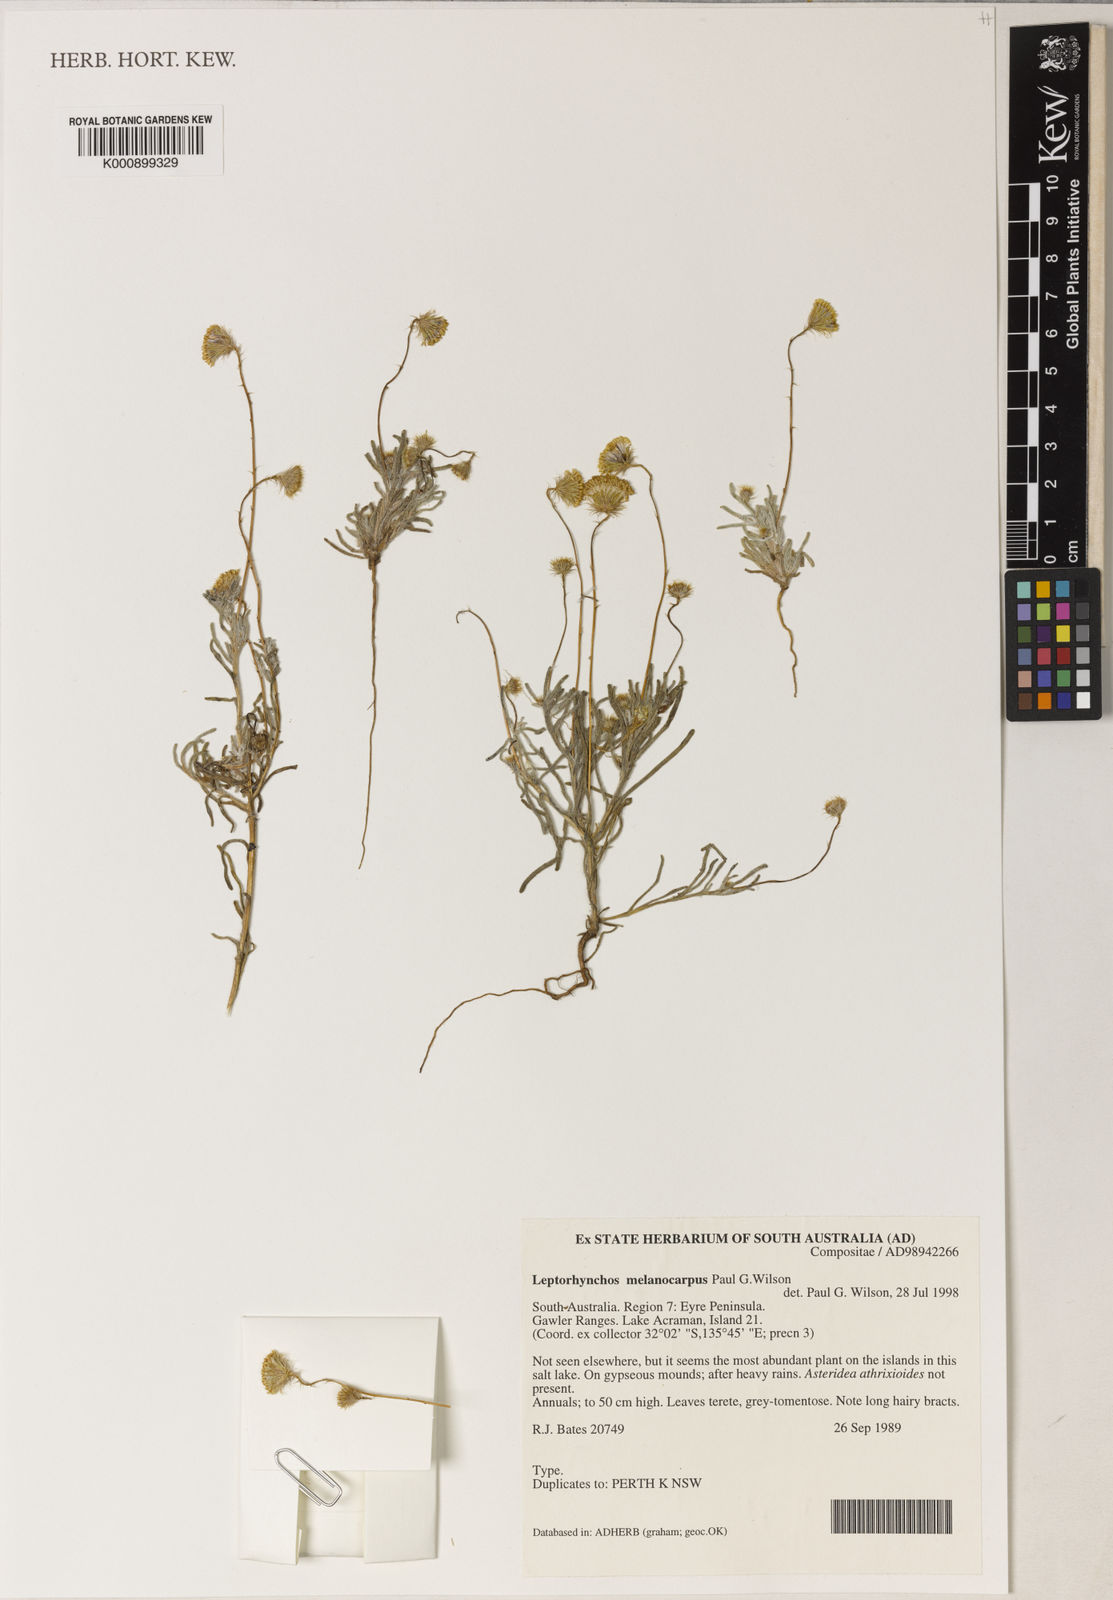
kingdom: Plantae
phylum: Tracheophyta
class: Magnoliopsida
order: Asterales
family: Asteraceae
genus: Leptorhynchos
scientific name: Leptorhynchos orientalis
